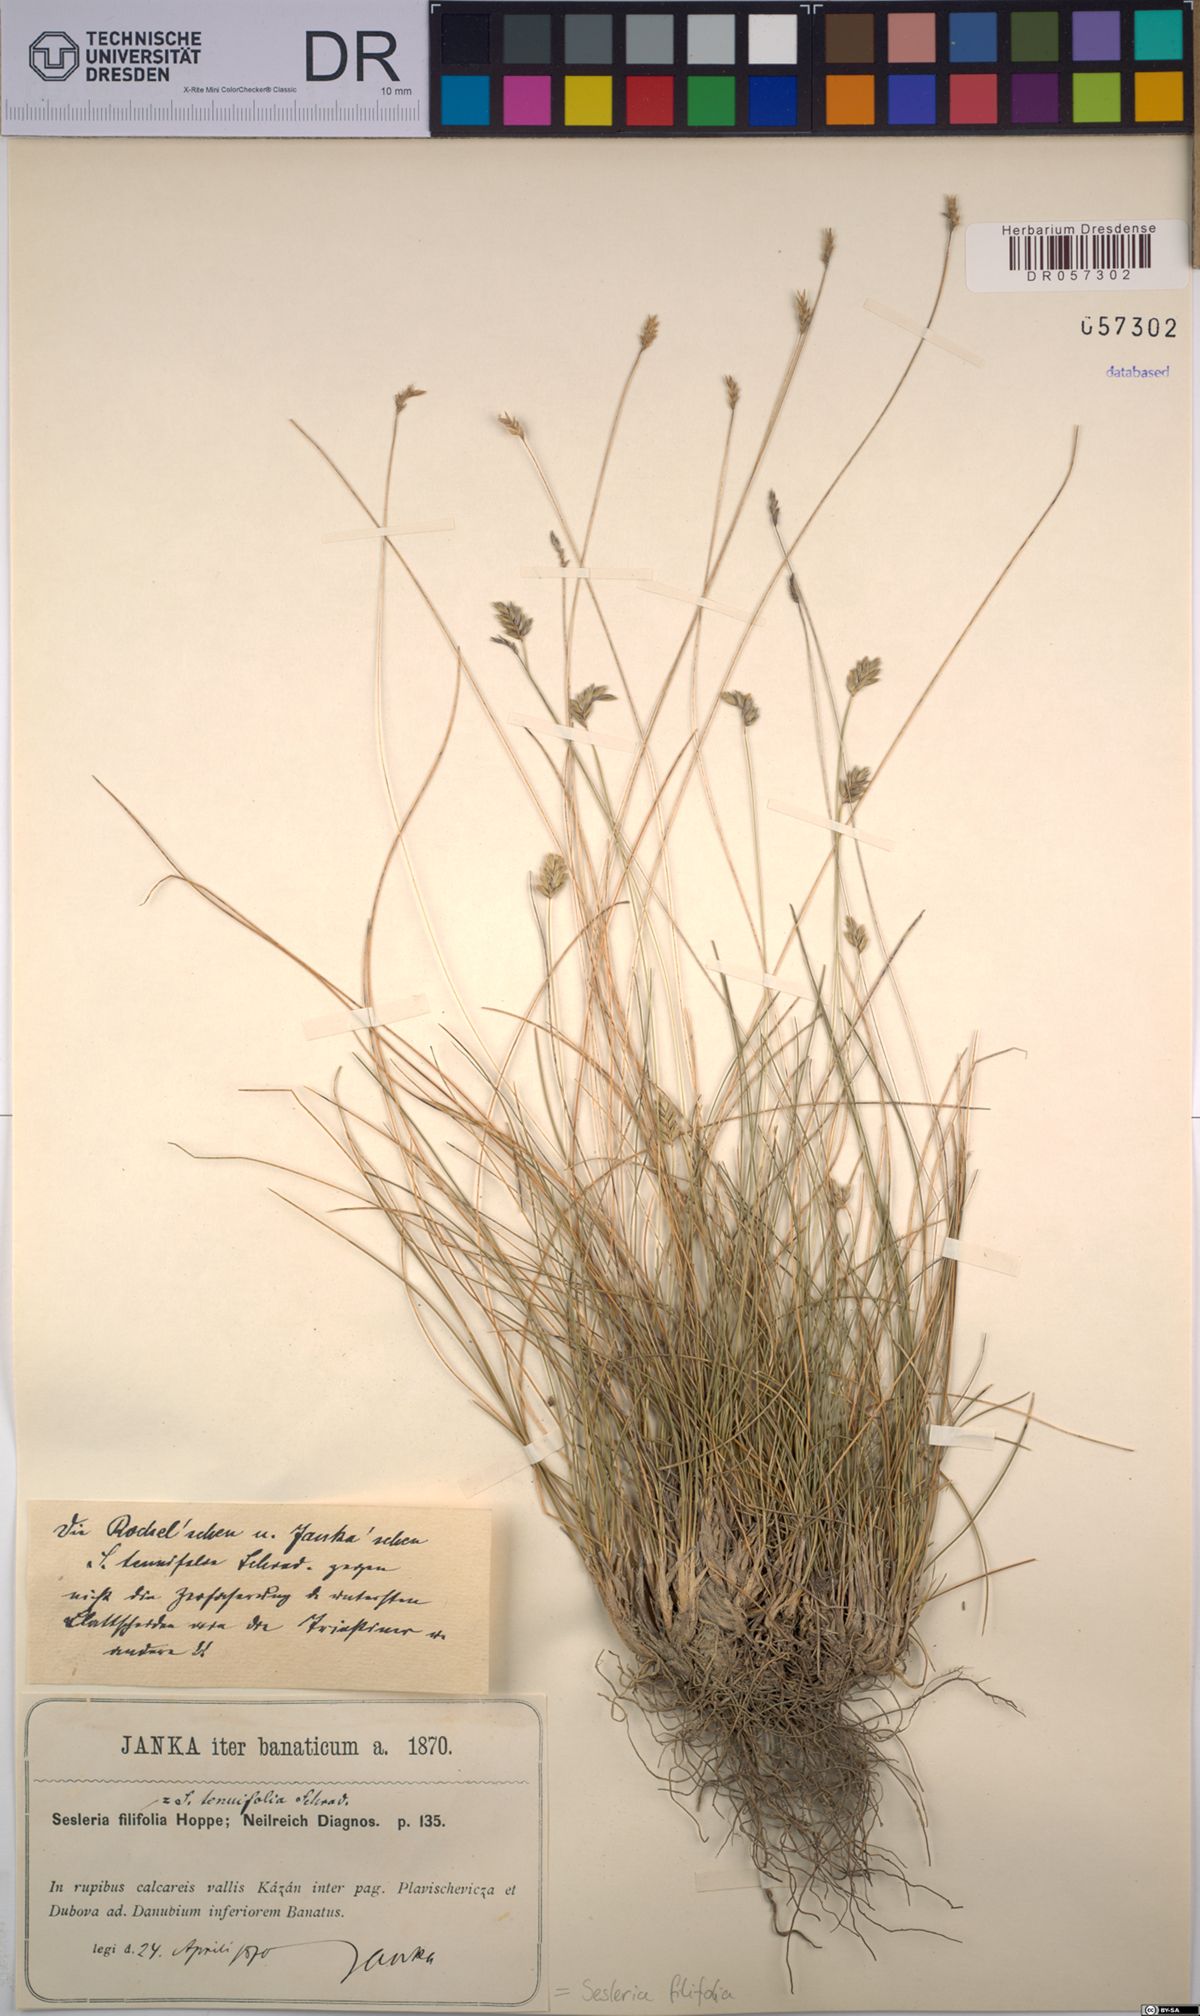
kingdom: Plantae
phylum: Tracheophyta
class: Liliopsida
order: Poales
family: Poaceae
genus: Sesleria
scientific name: Sesleria filifolia
